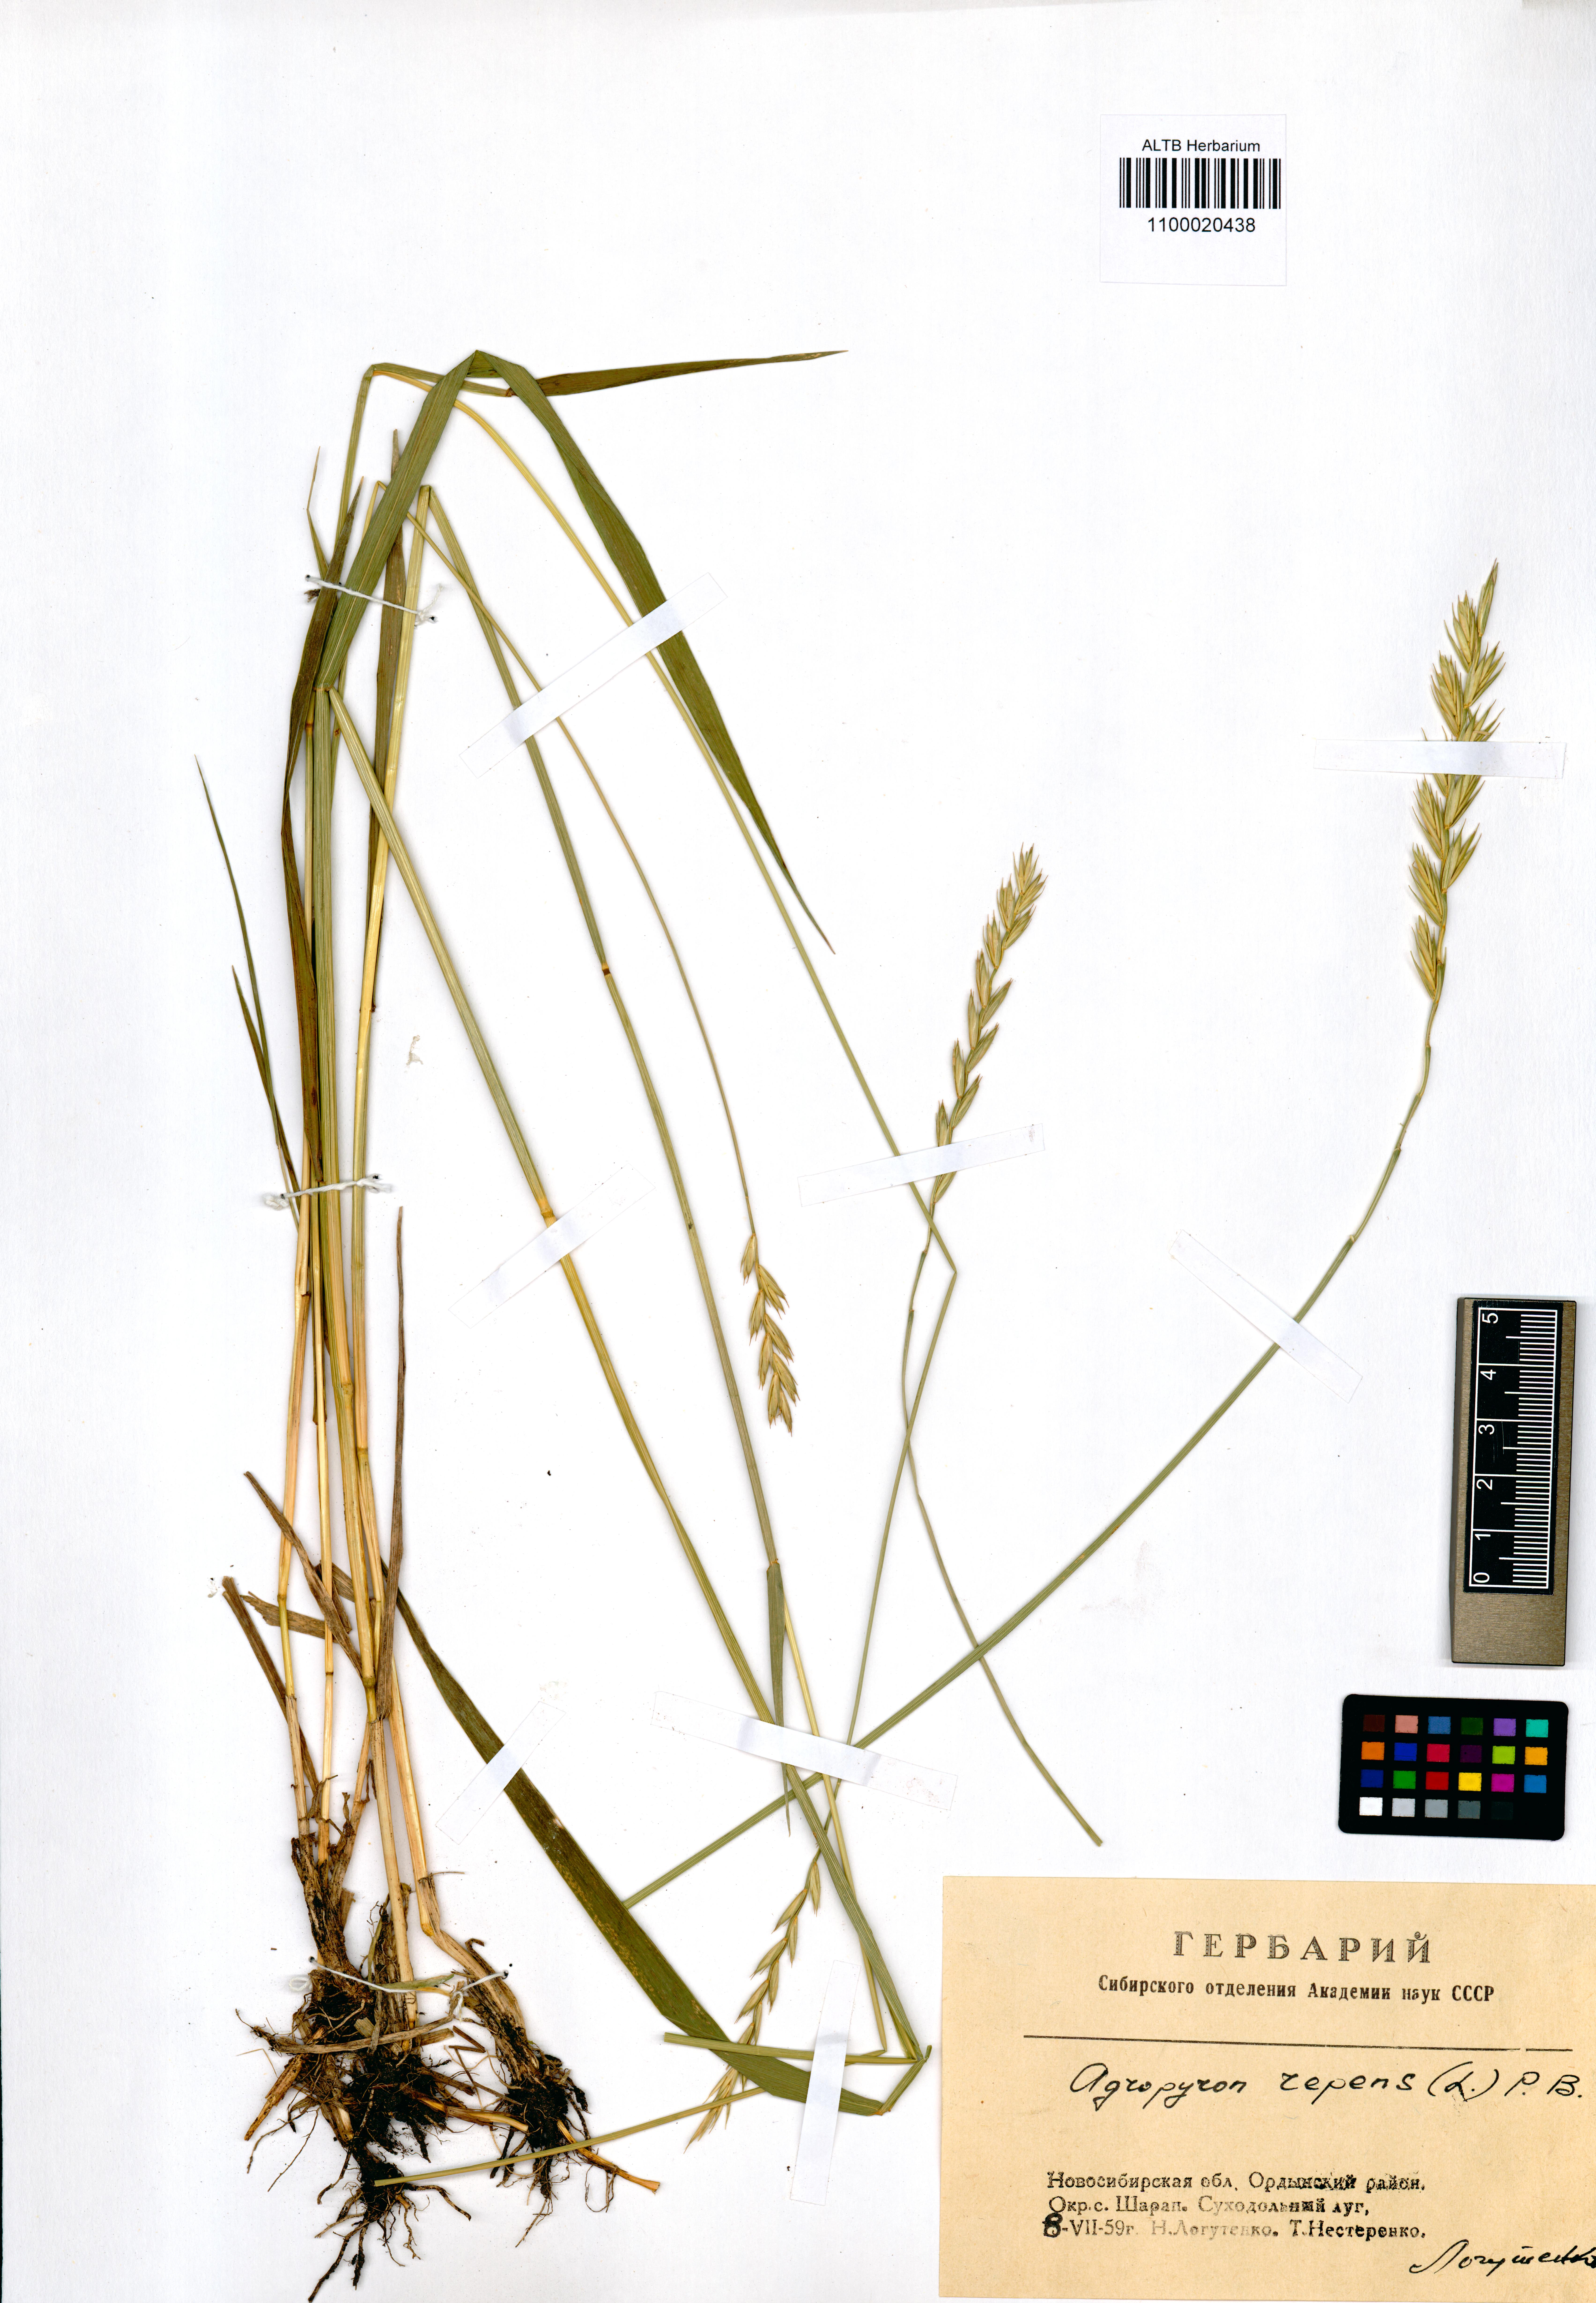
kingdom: Plantae
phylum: Tracheophyta
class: Liliopsida
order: Poales
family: Poaceae
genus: Elymus
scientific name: Elymus repens
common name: Quackgrass
